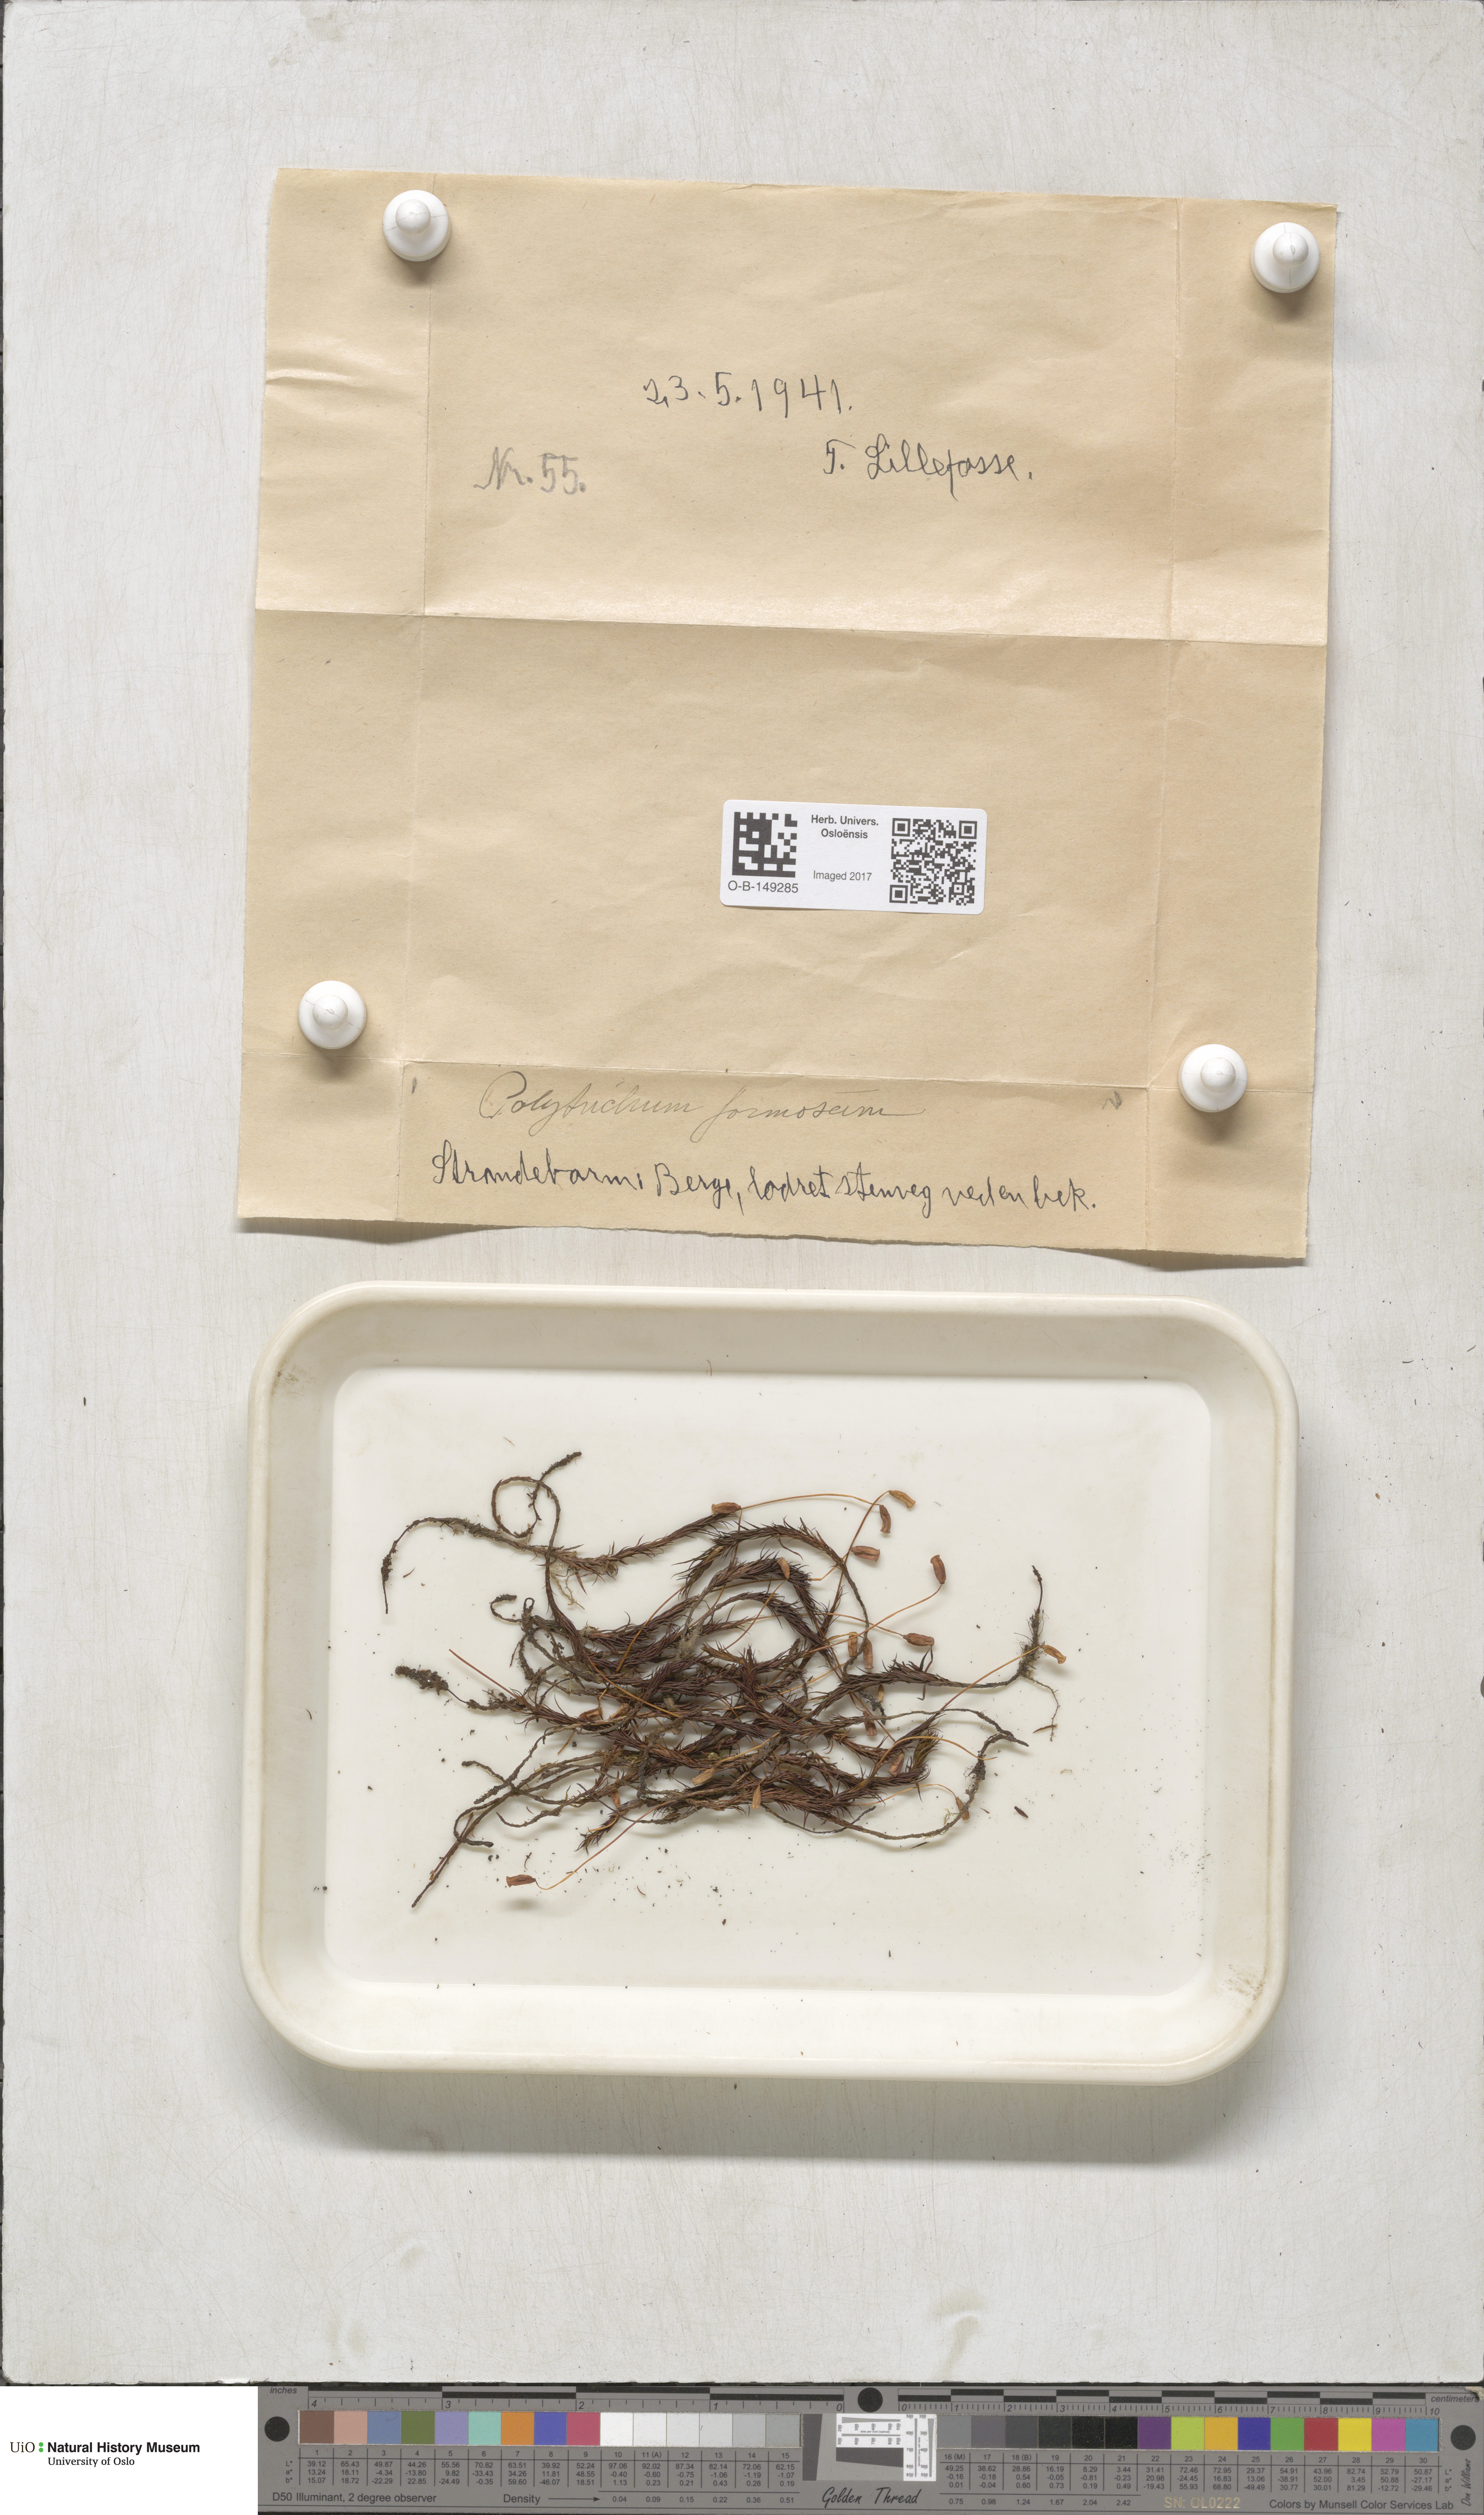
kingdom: Plantae
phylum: Bryophyta
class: Polytrichopsida
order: Polytrichales
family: Polytrichaceae
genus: Polytrichum
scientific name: Polytrichum formosum
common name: Bank haircap moss
